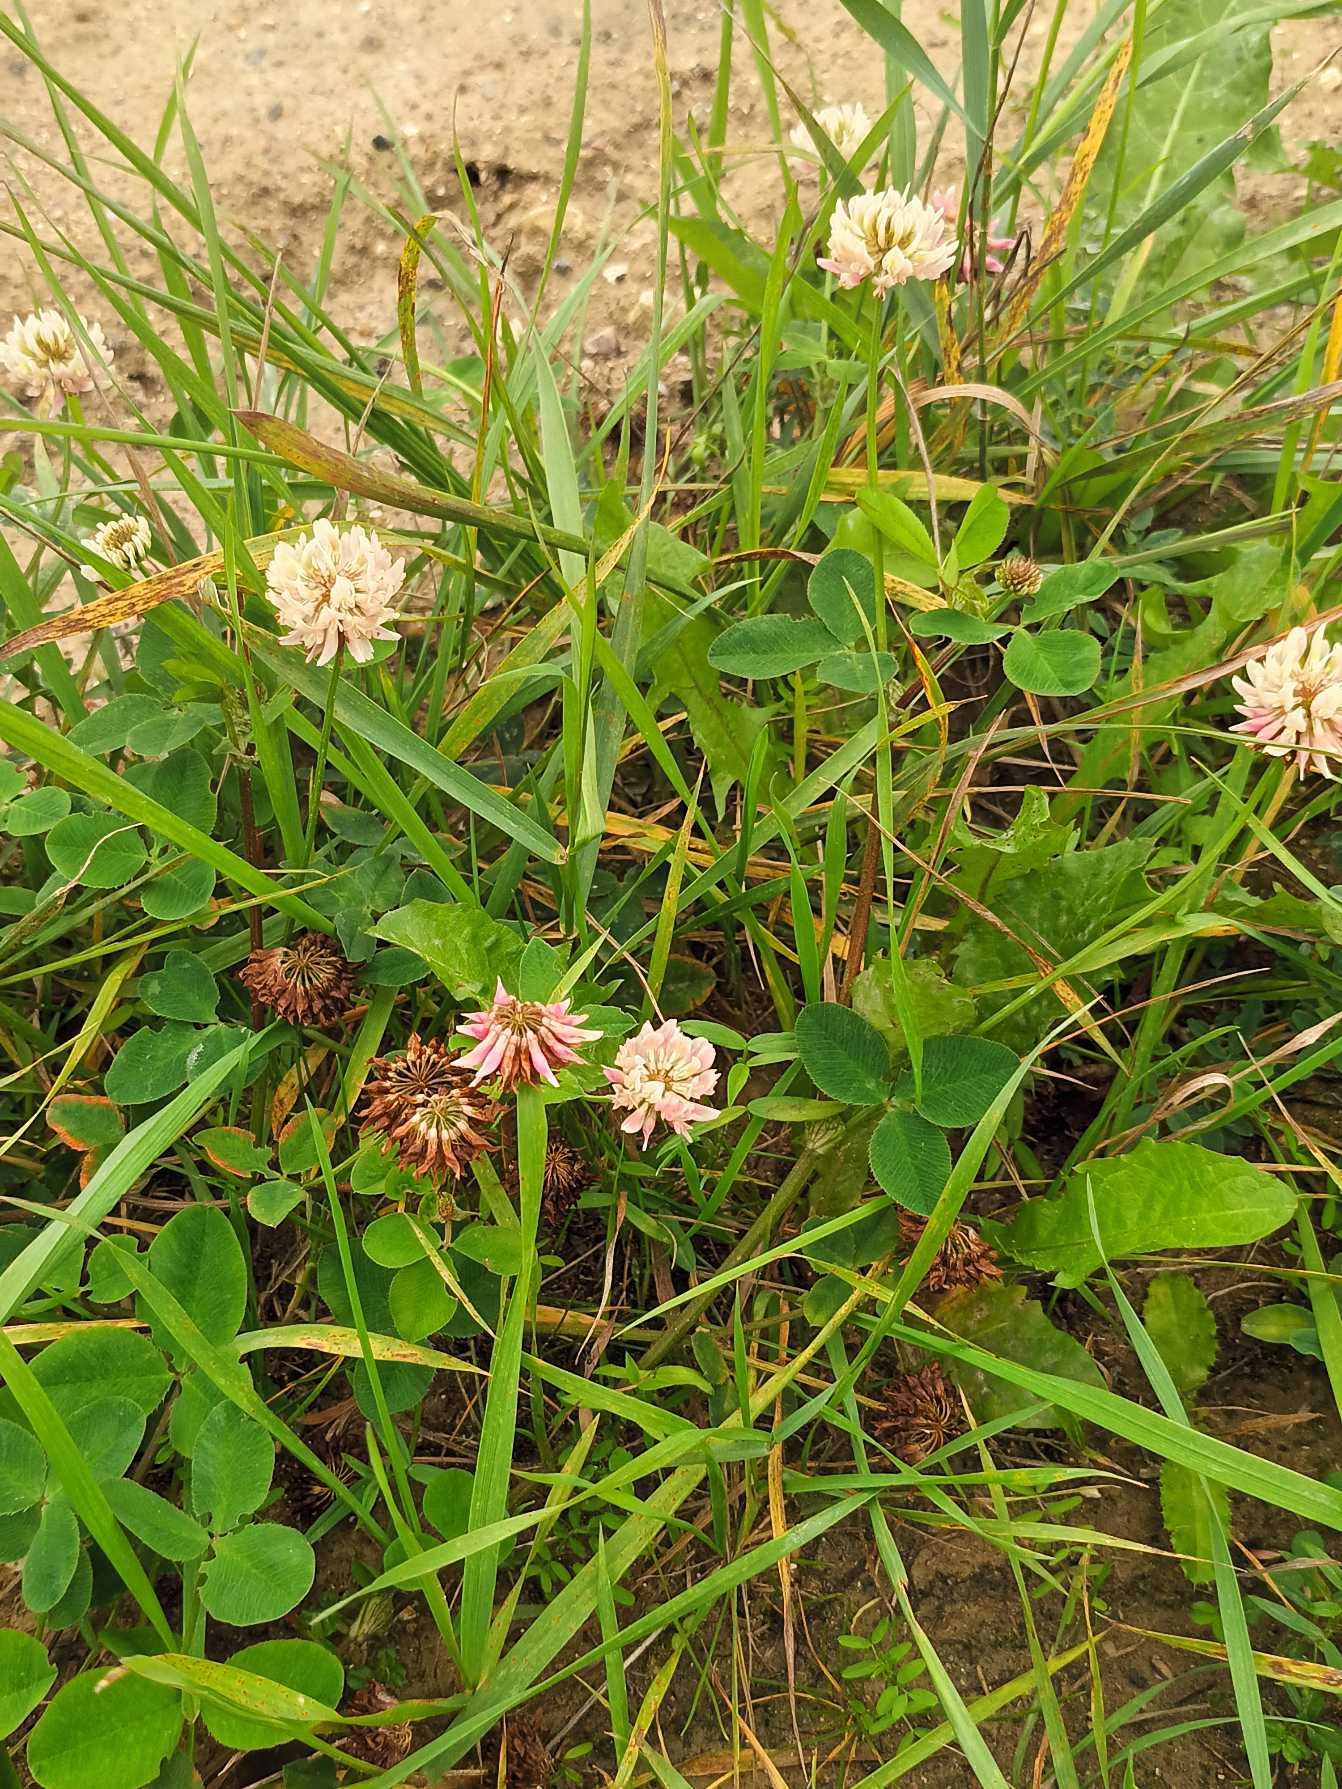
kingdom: Plantae
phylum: Tracheophyta
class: Magnoliopsida
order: Fabales
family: Fabaceae
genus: Trifolium
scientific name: Trifolium hybridum
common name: Alsike-kløver
